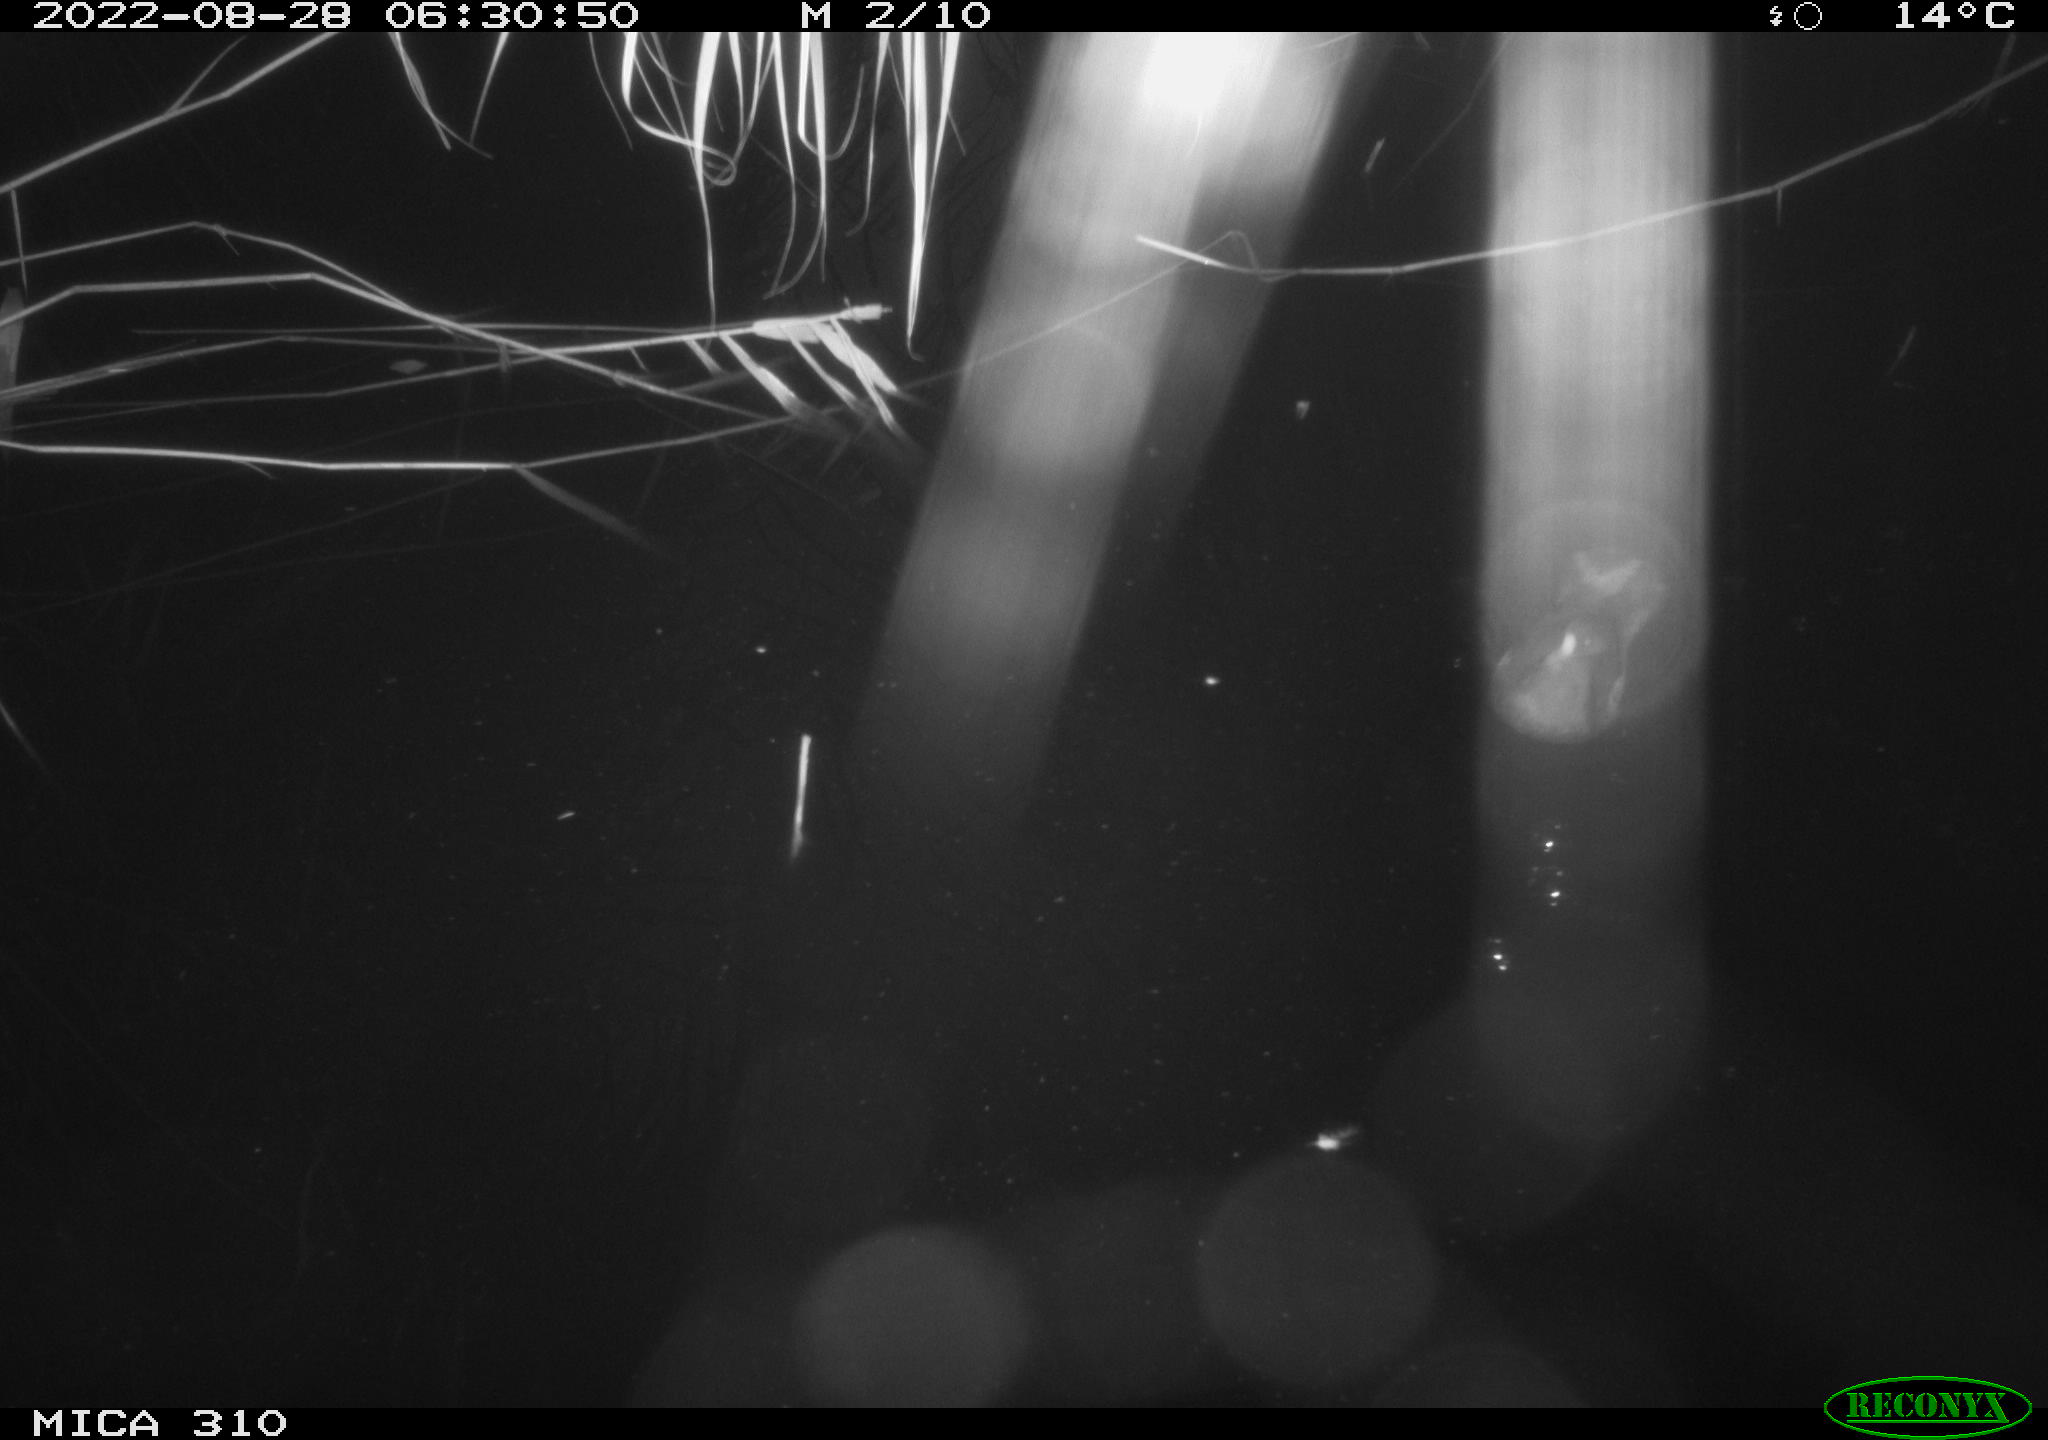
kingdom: Animalia
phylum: Chordata
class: Aves
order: Gruiformes
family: Rallidae
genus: Gallinula
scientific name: Gallinula chloropus
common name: Common moorhen
